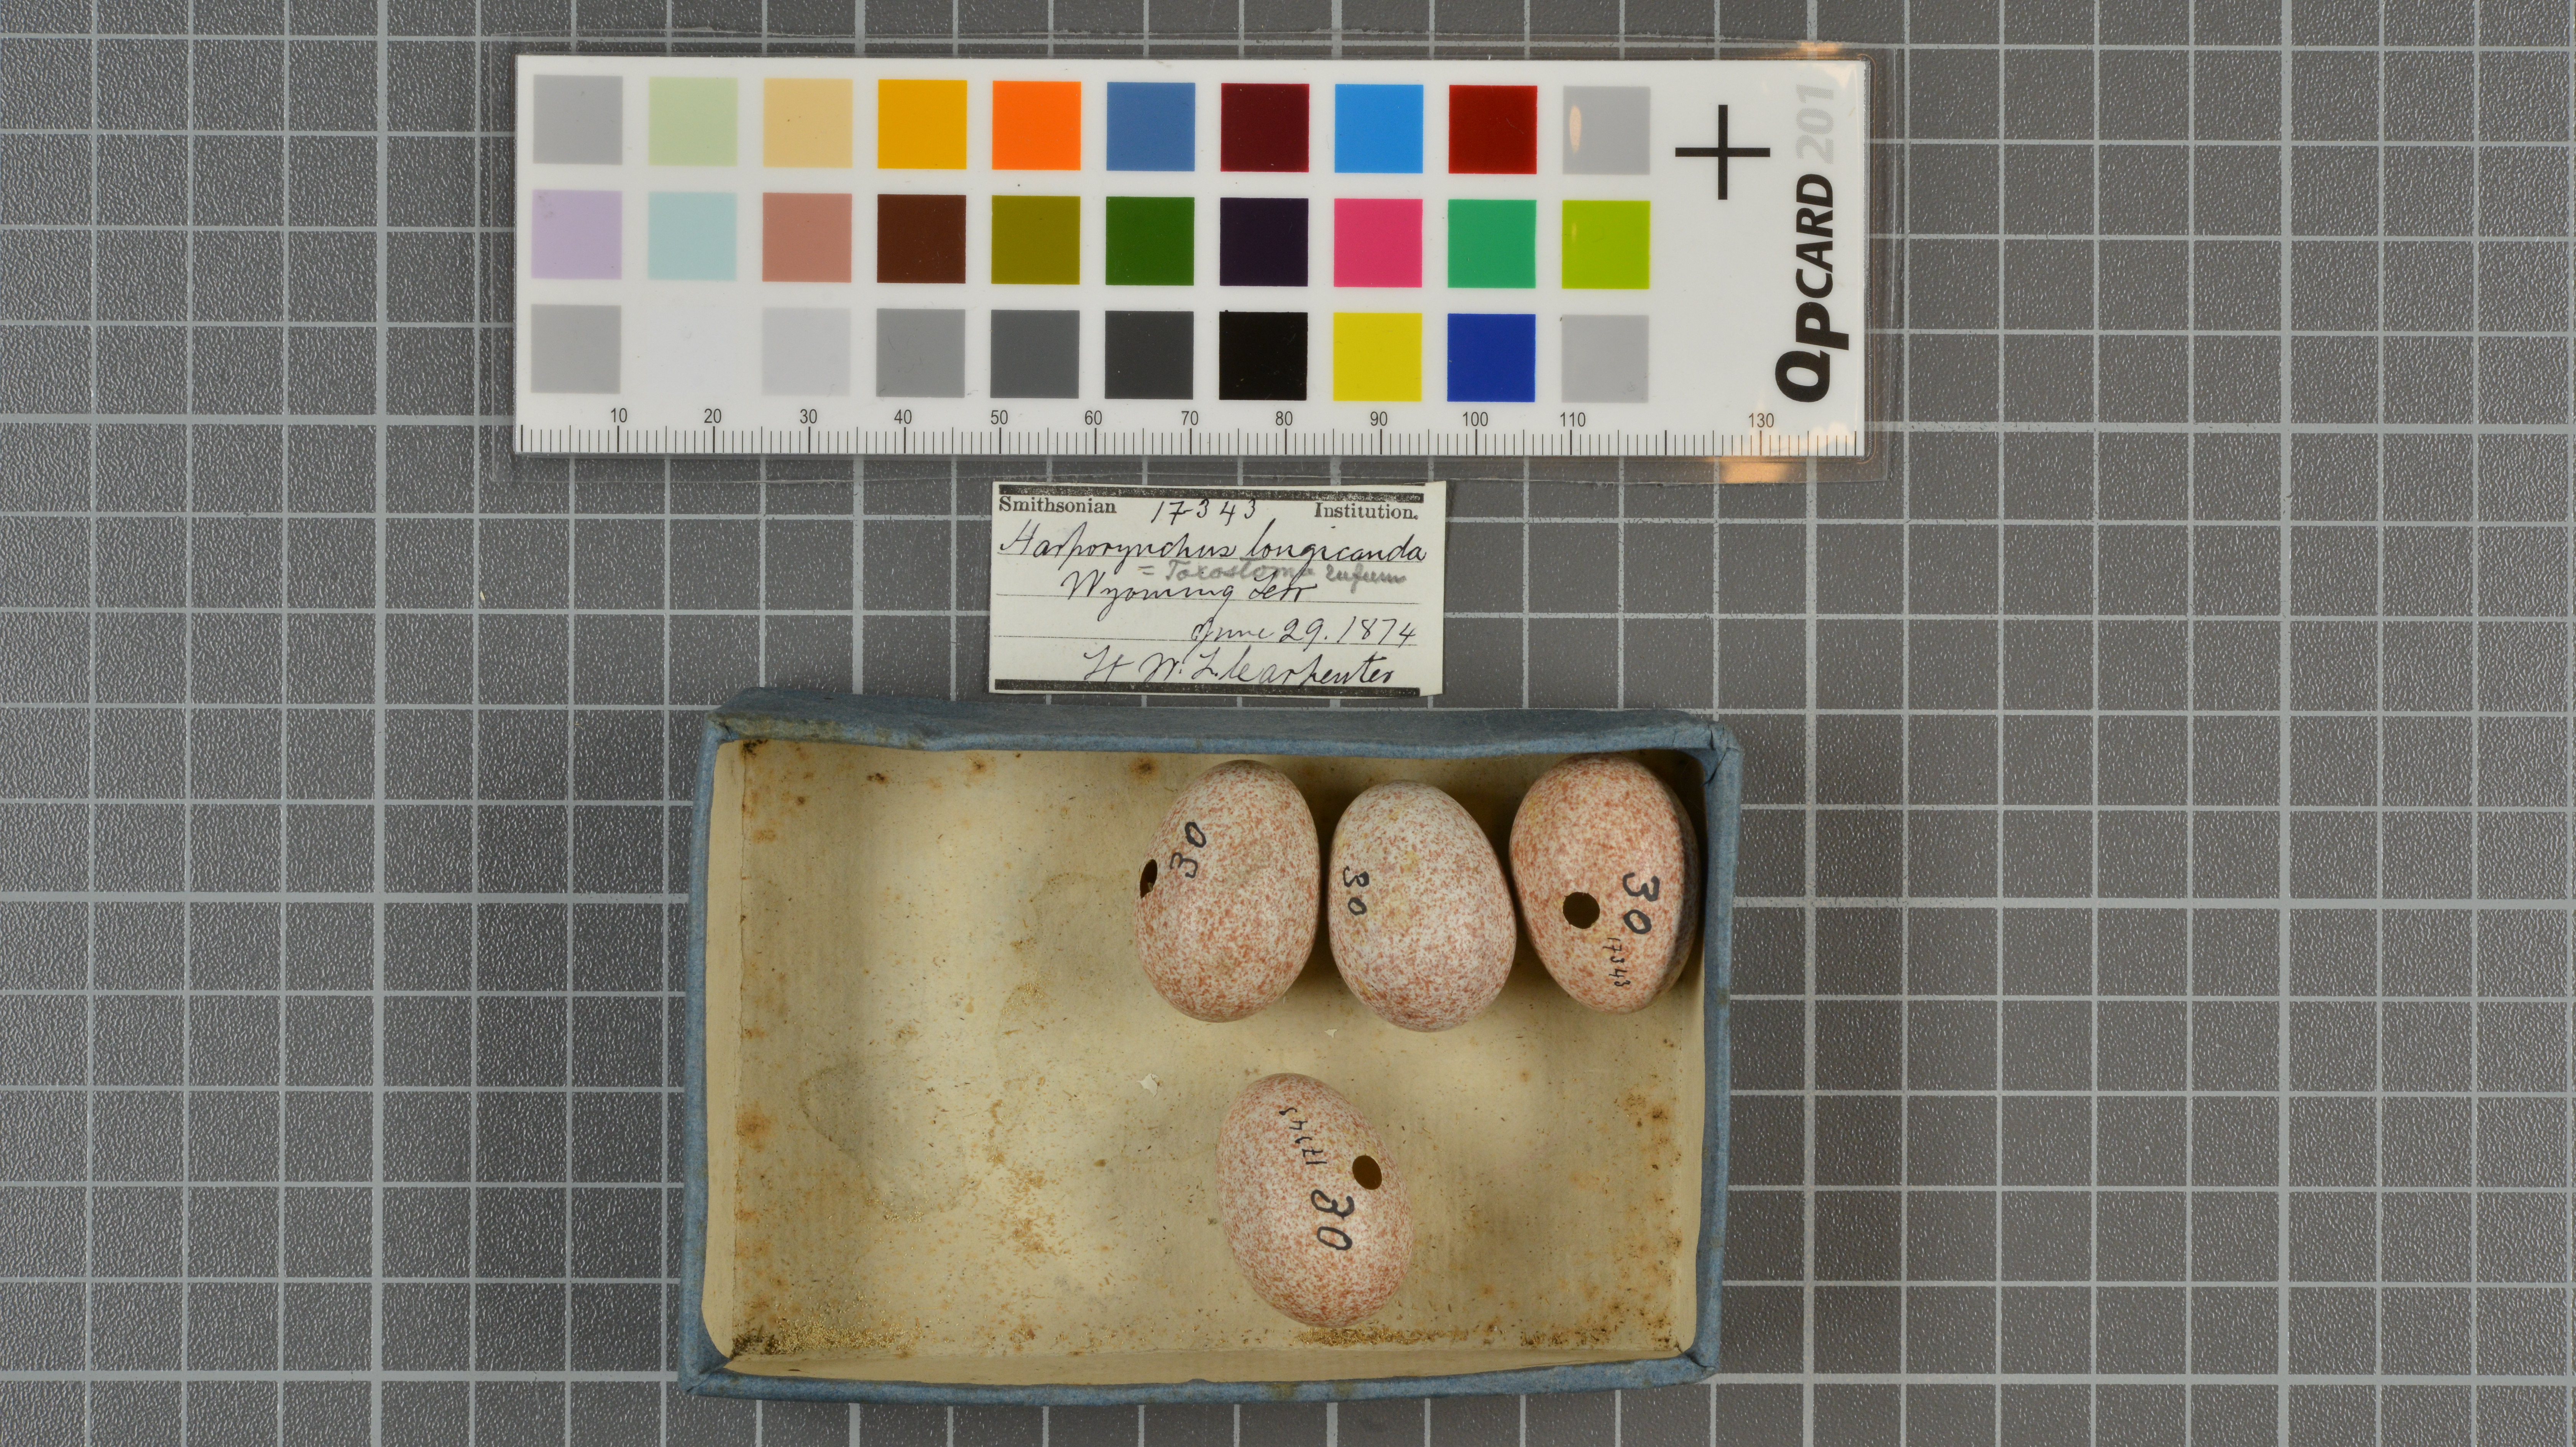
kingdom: Animalia
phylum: Chordata
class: Aves
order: Passeriformes
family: Mimidae
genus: Toxostoma
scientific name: Toxostoma rufum
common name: Brown thrasher
